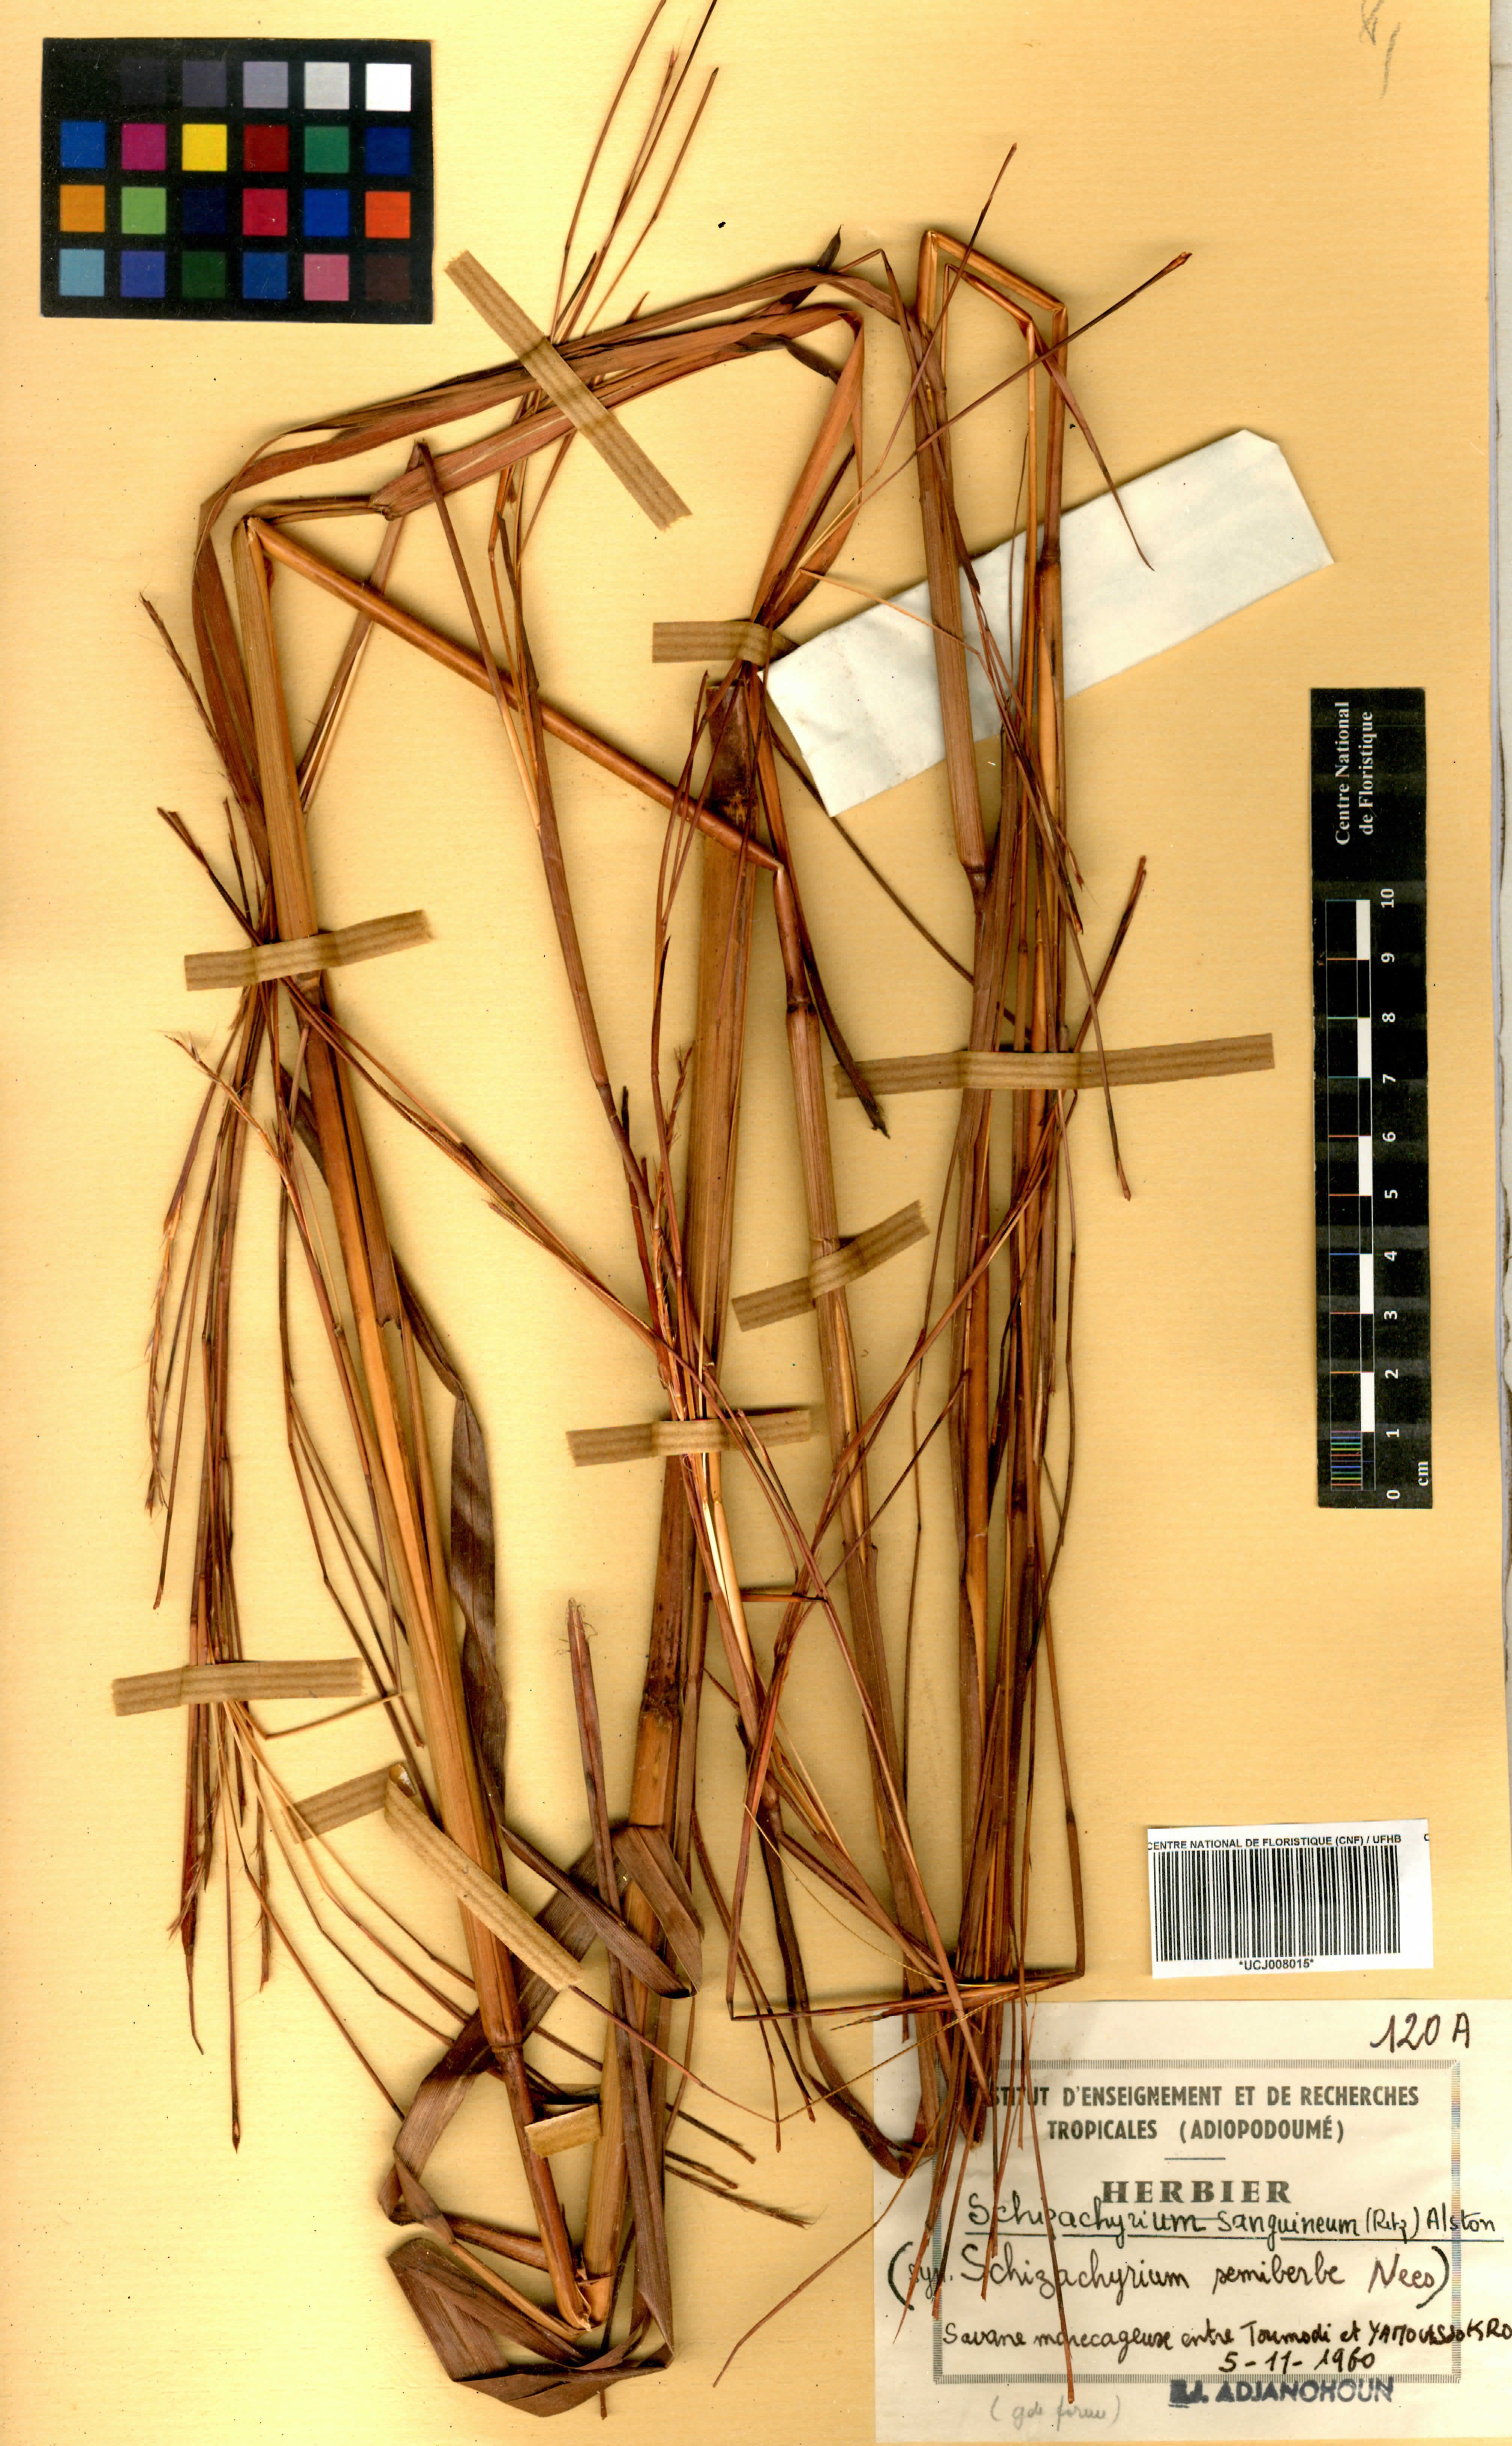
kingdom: Plantae
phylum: Tracheophyta
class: Liliopsida
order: Poales
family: Poaceae
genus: Schizachyrium
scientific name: Schizachyrium sanguineum
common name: Crimson bluestem
